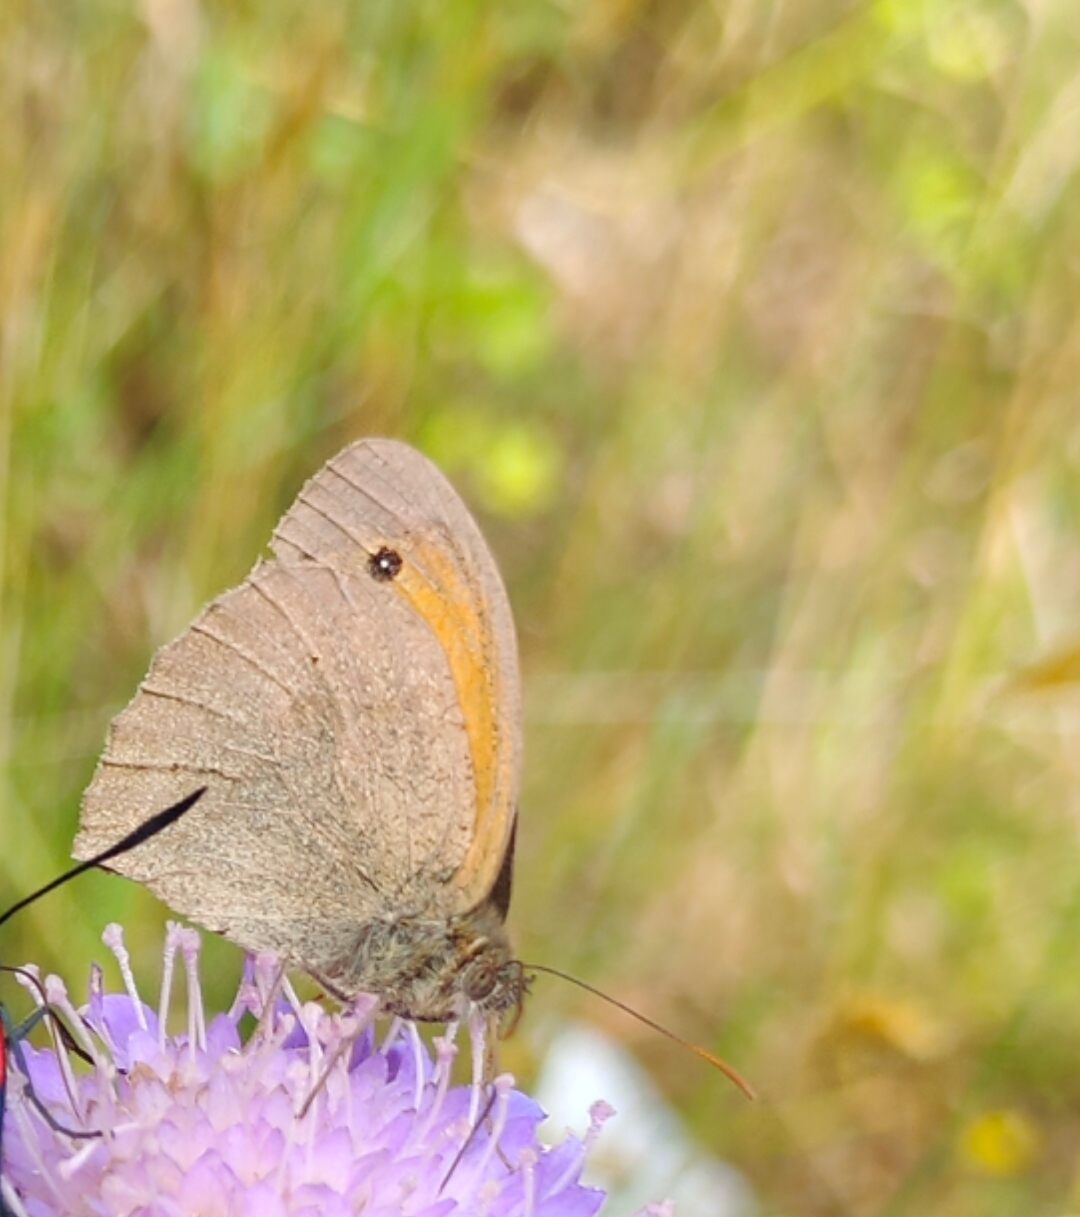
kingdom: Animalia
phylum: Arthropoda
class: Insecta
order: Lepidoptera
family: Nymphalidae
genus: Maniola
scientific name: Maniola jurtina
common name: Græsrandøje
